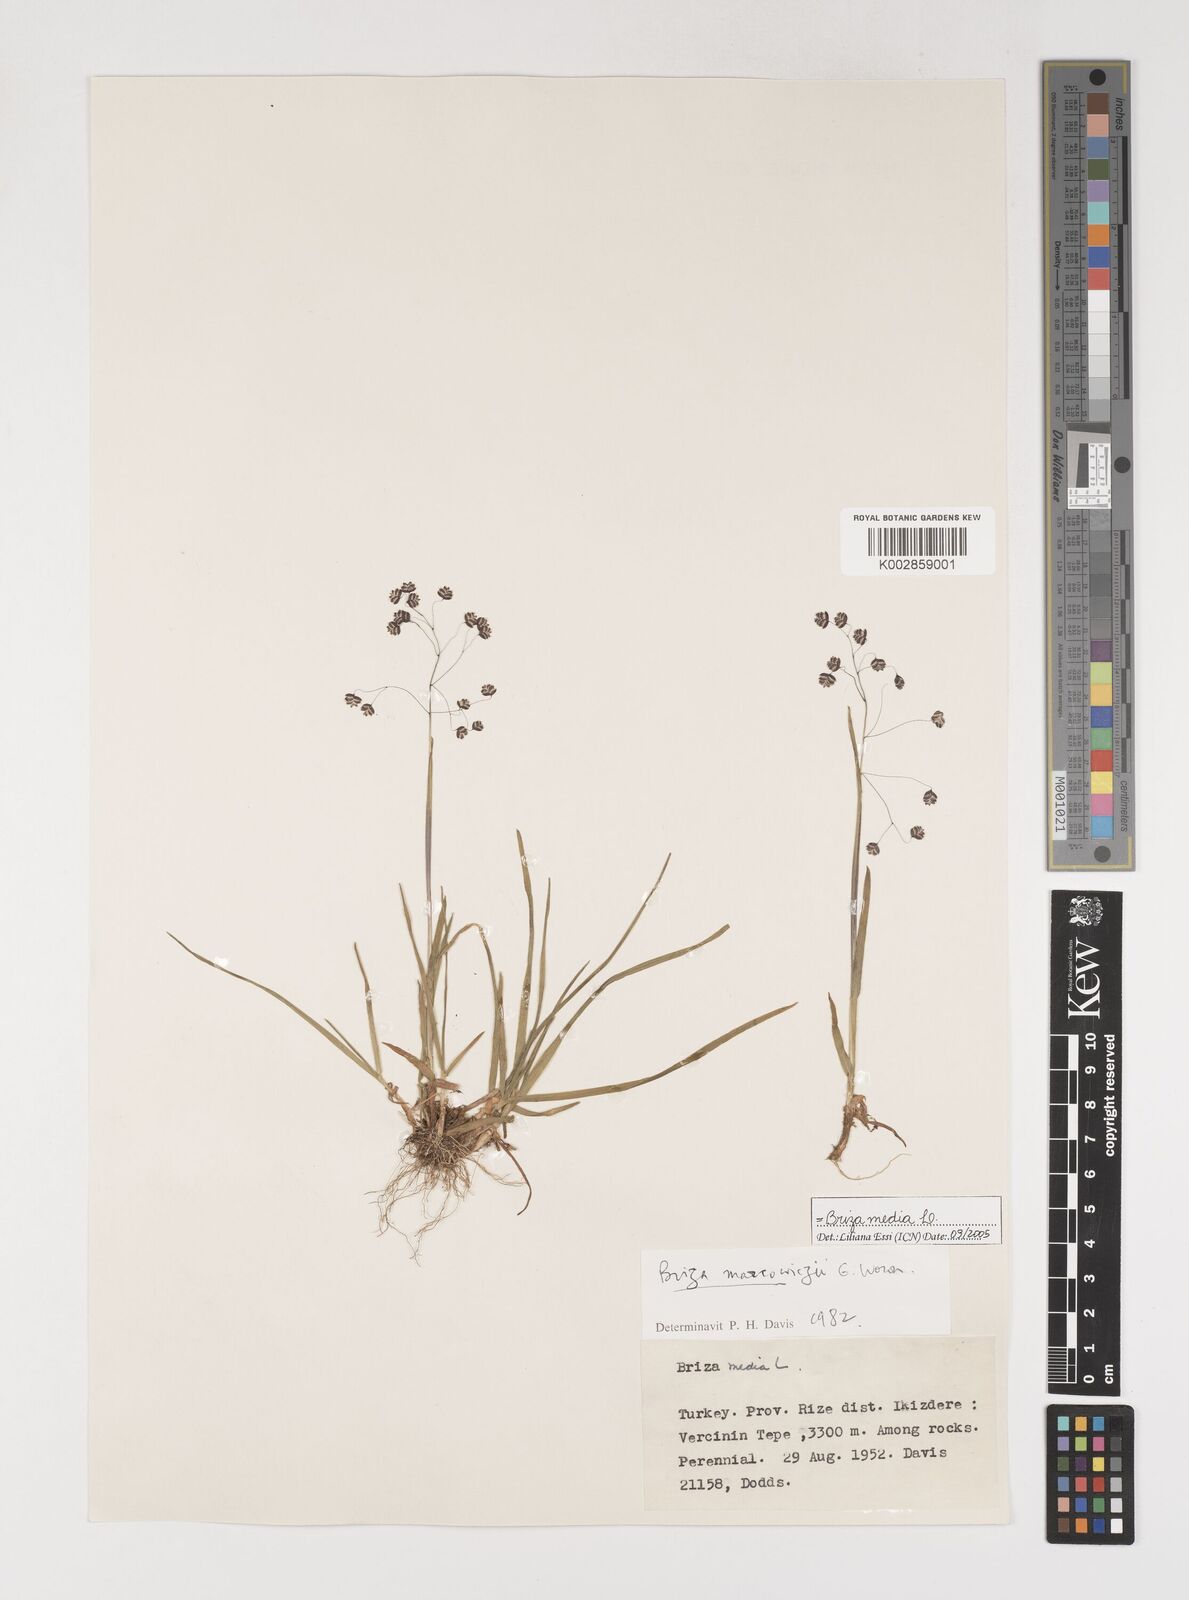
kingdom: Plantae
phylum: Tracheophyta
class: Liliopsida
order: Poales
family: Poaceae
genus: Briza
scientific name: Briza marcowiczii
